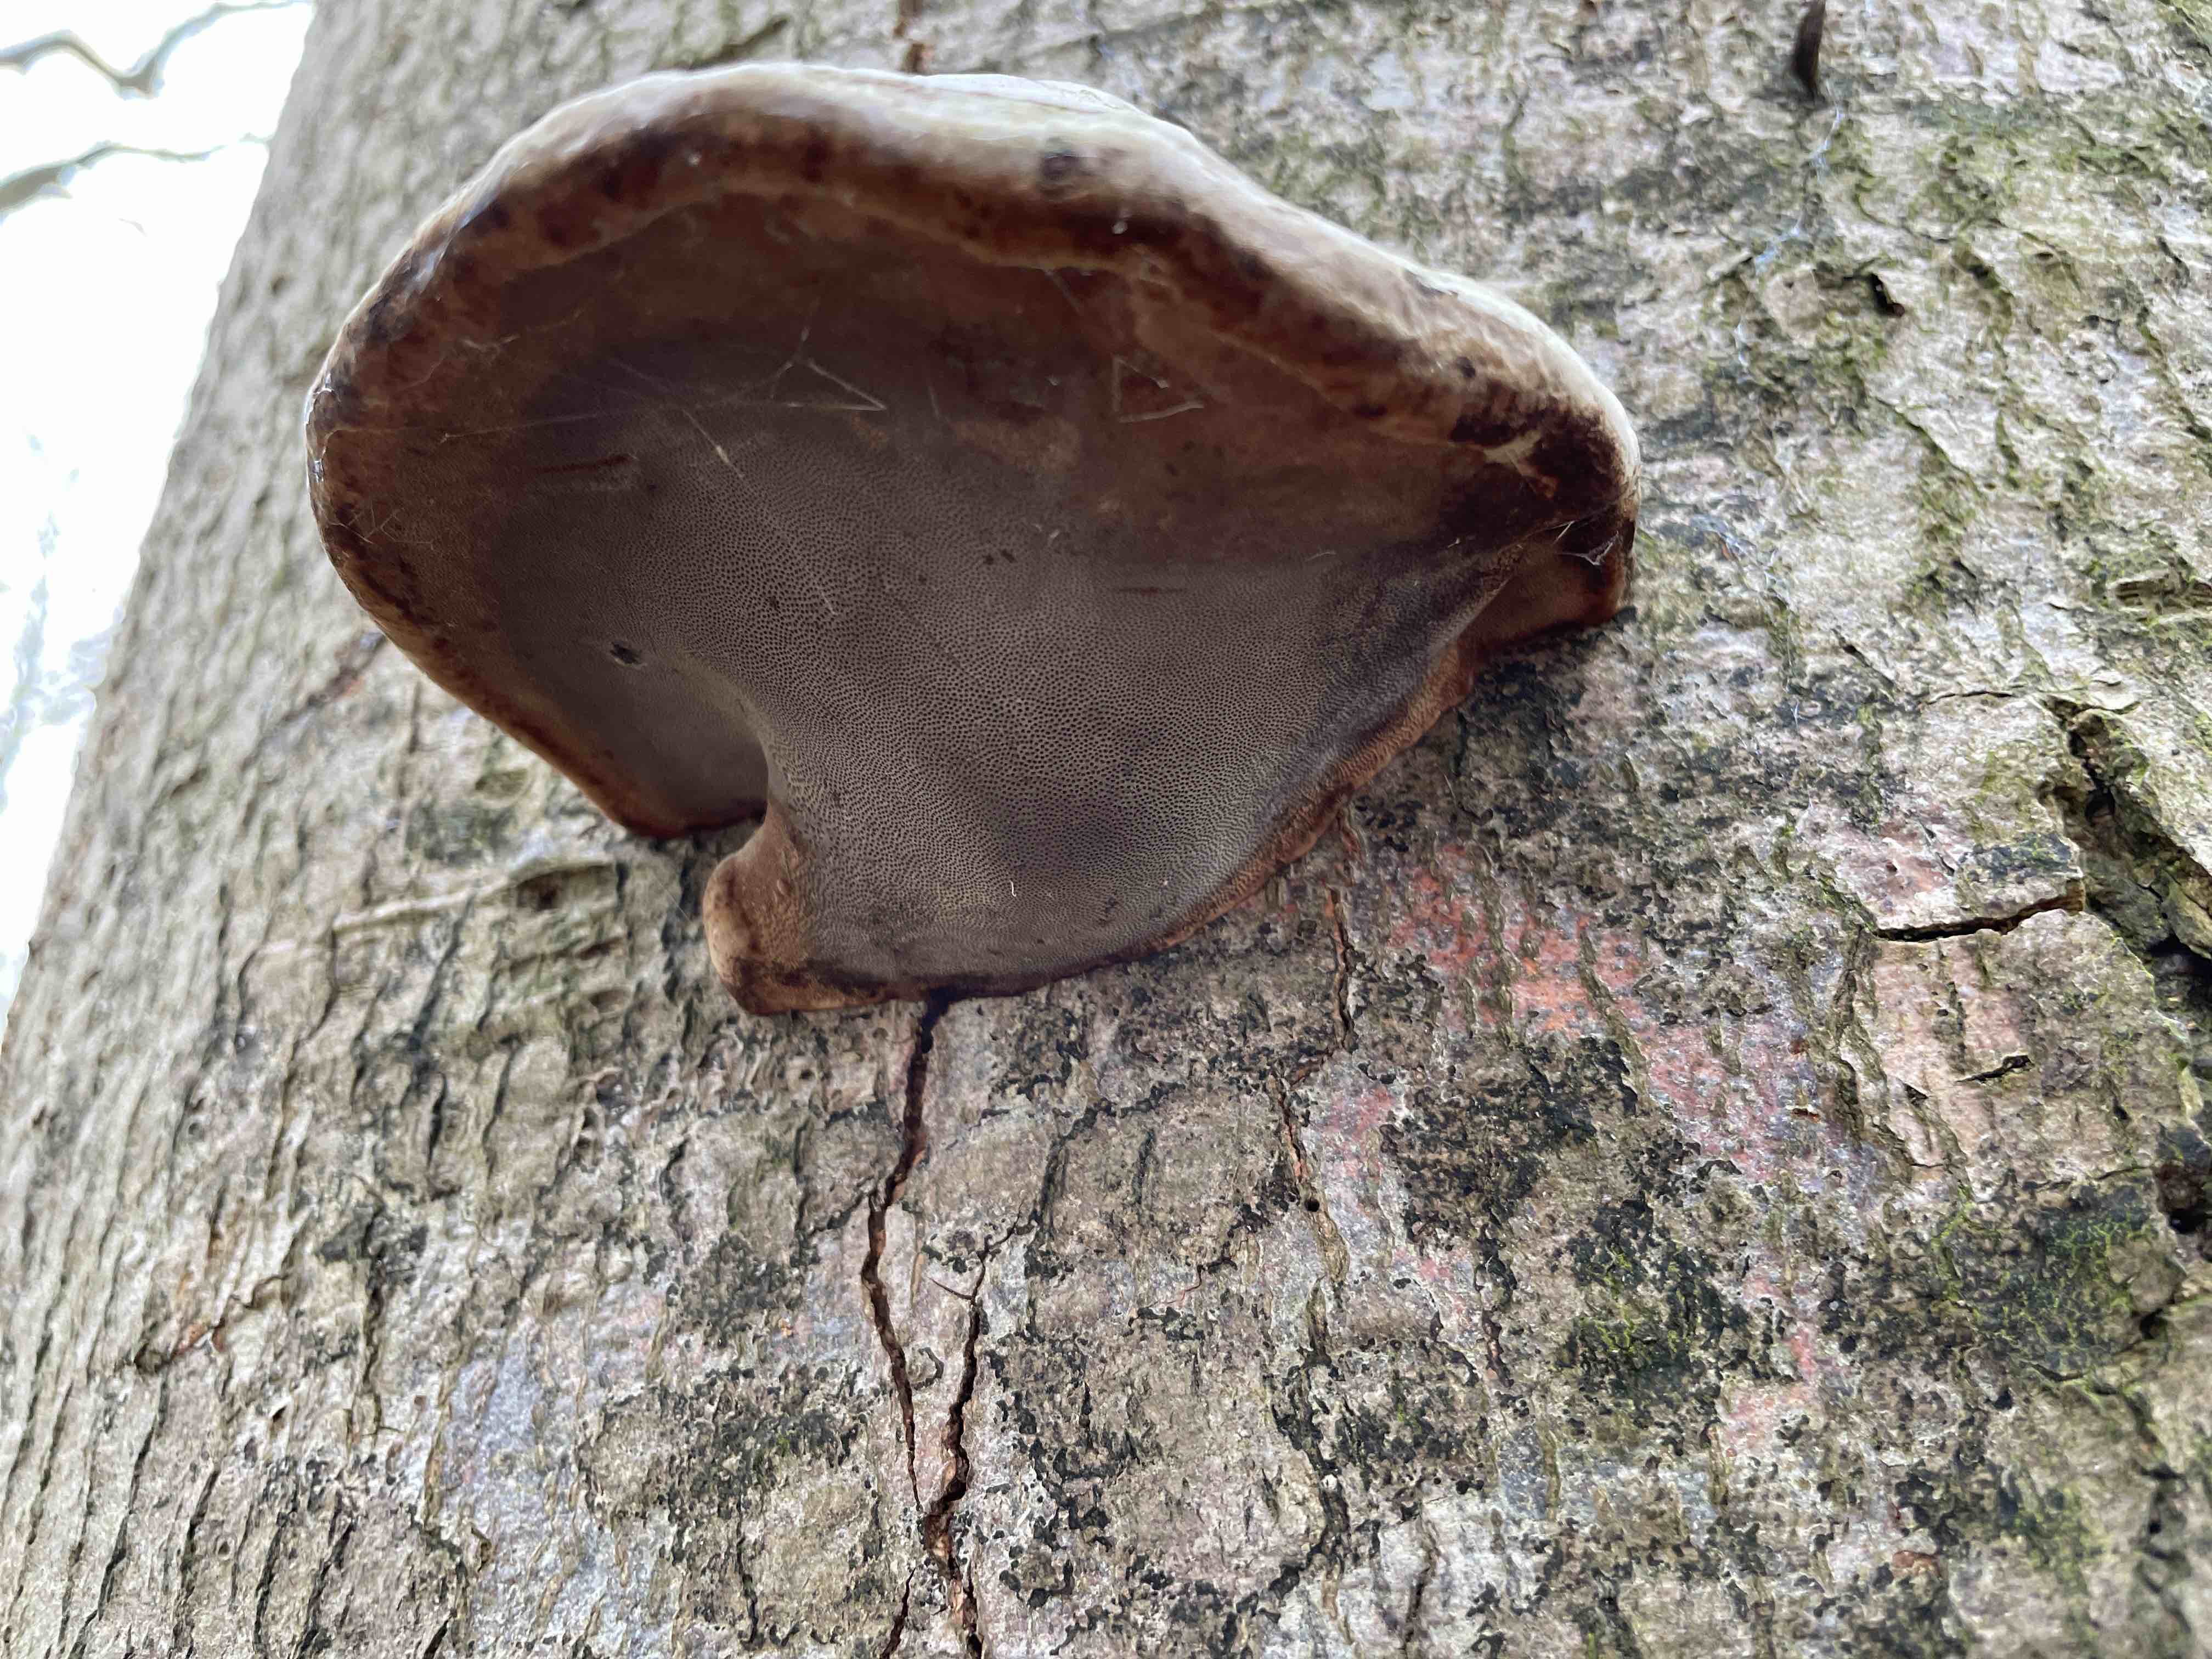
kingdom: Fungi
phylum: Basidiomycota
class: Agaricomycetes
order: Polyporales
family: Polyporaceae
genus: Fomes
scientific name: Fomes fomentarius
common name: tøndersvamp
